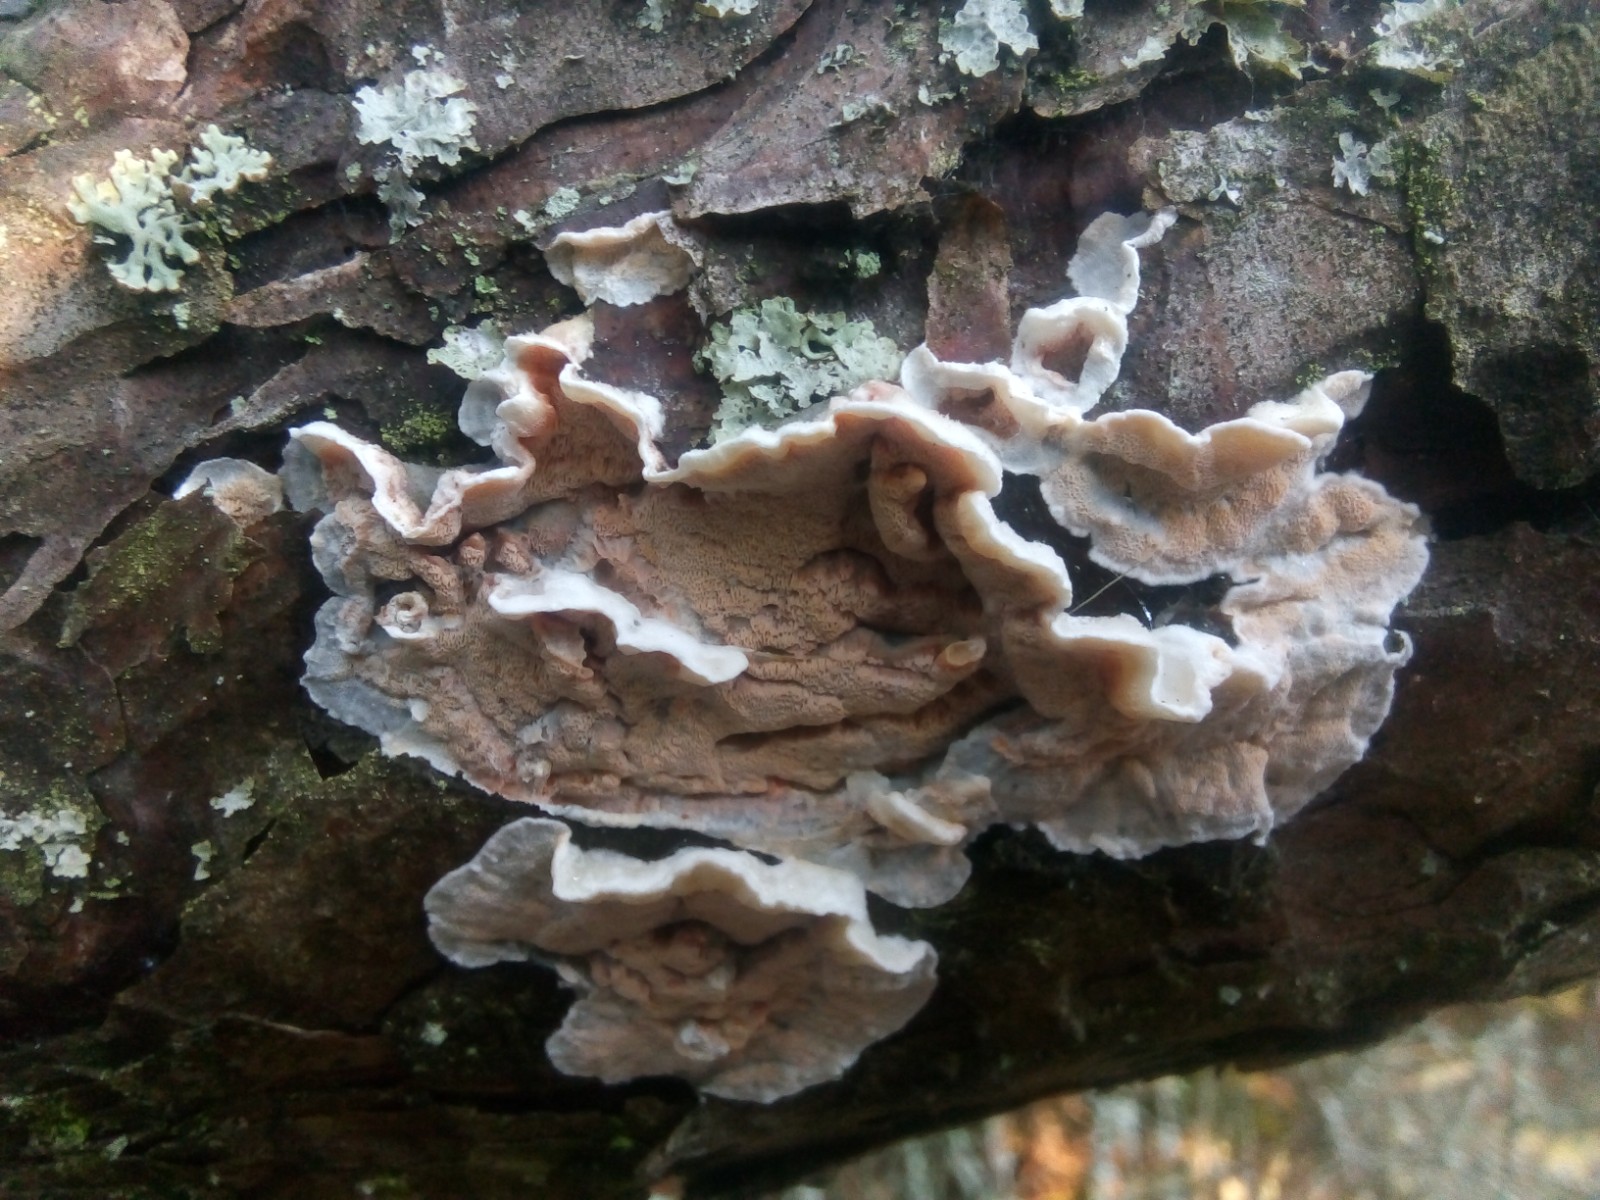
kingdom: Fungi
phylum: Basidiomycota
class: Agaricomycetes
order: Polyporales
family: Incrustoporiaceae
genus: Skeletocutis
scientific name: Skeletocutis amorpha
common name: orange krystalporesvamp
